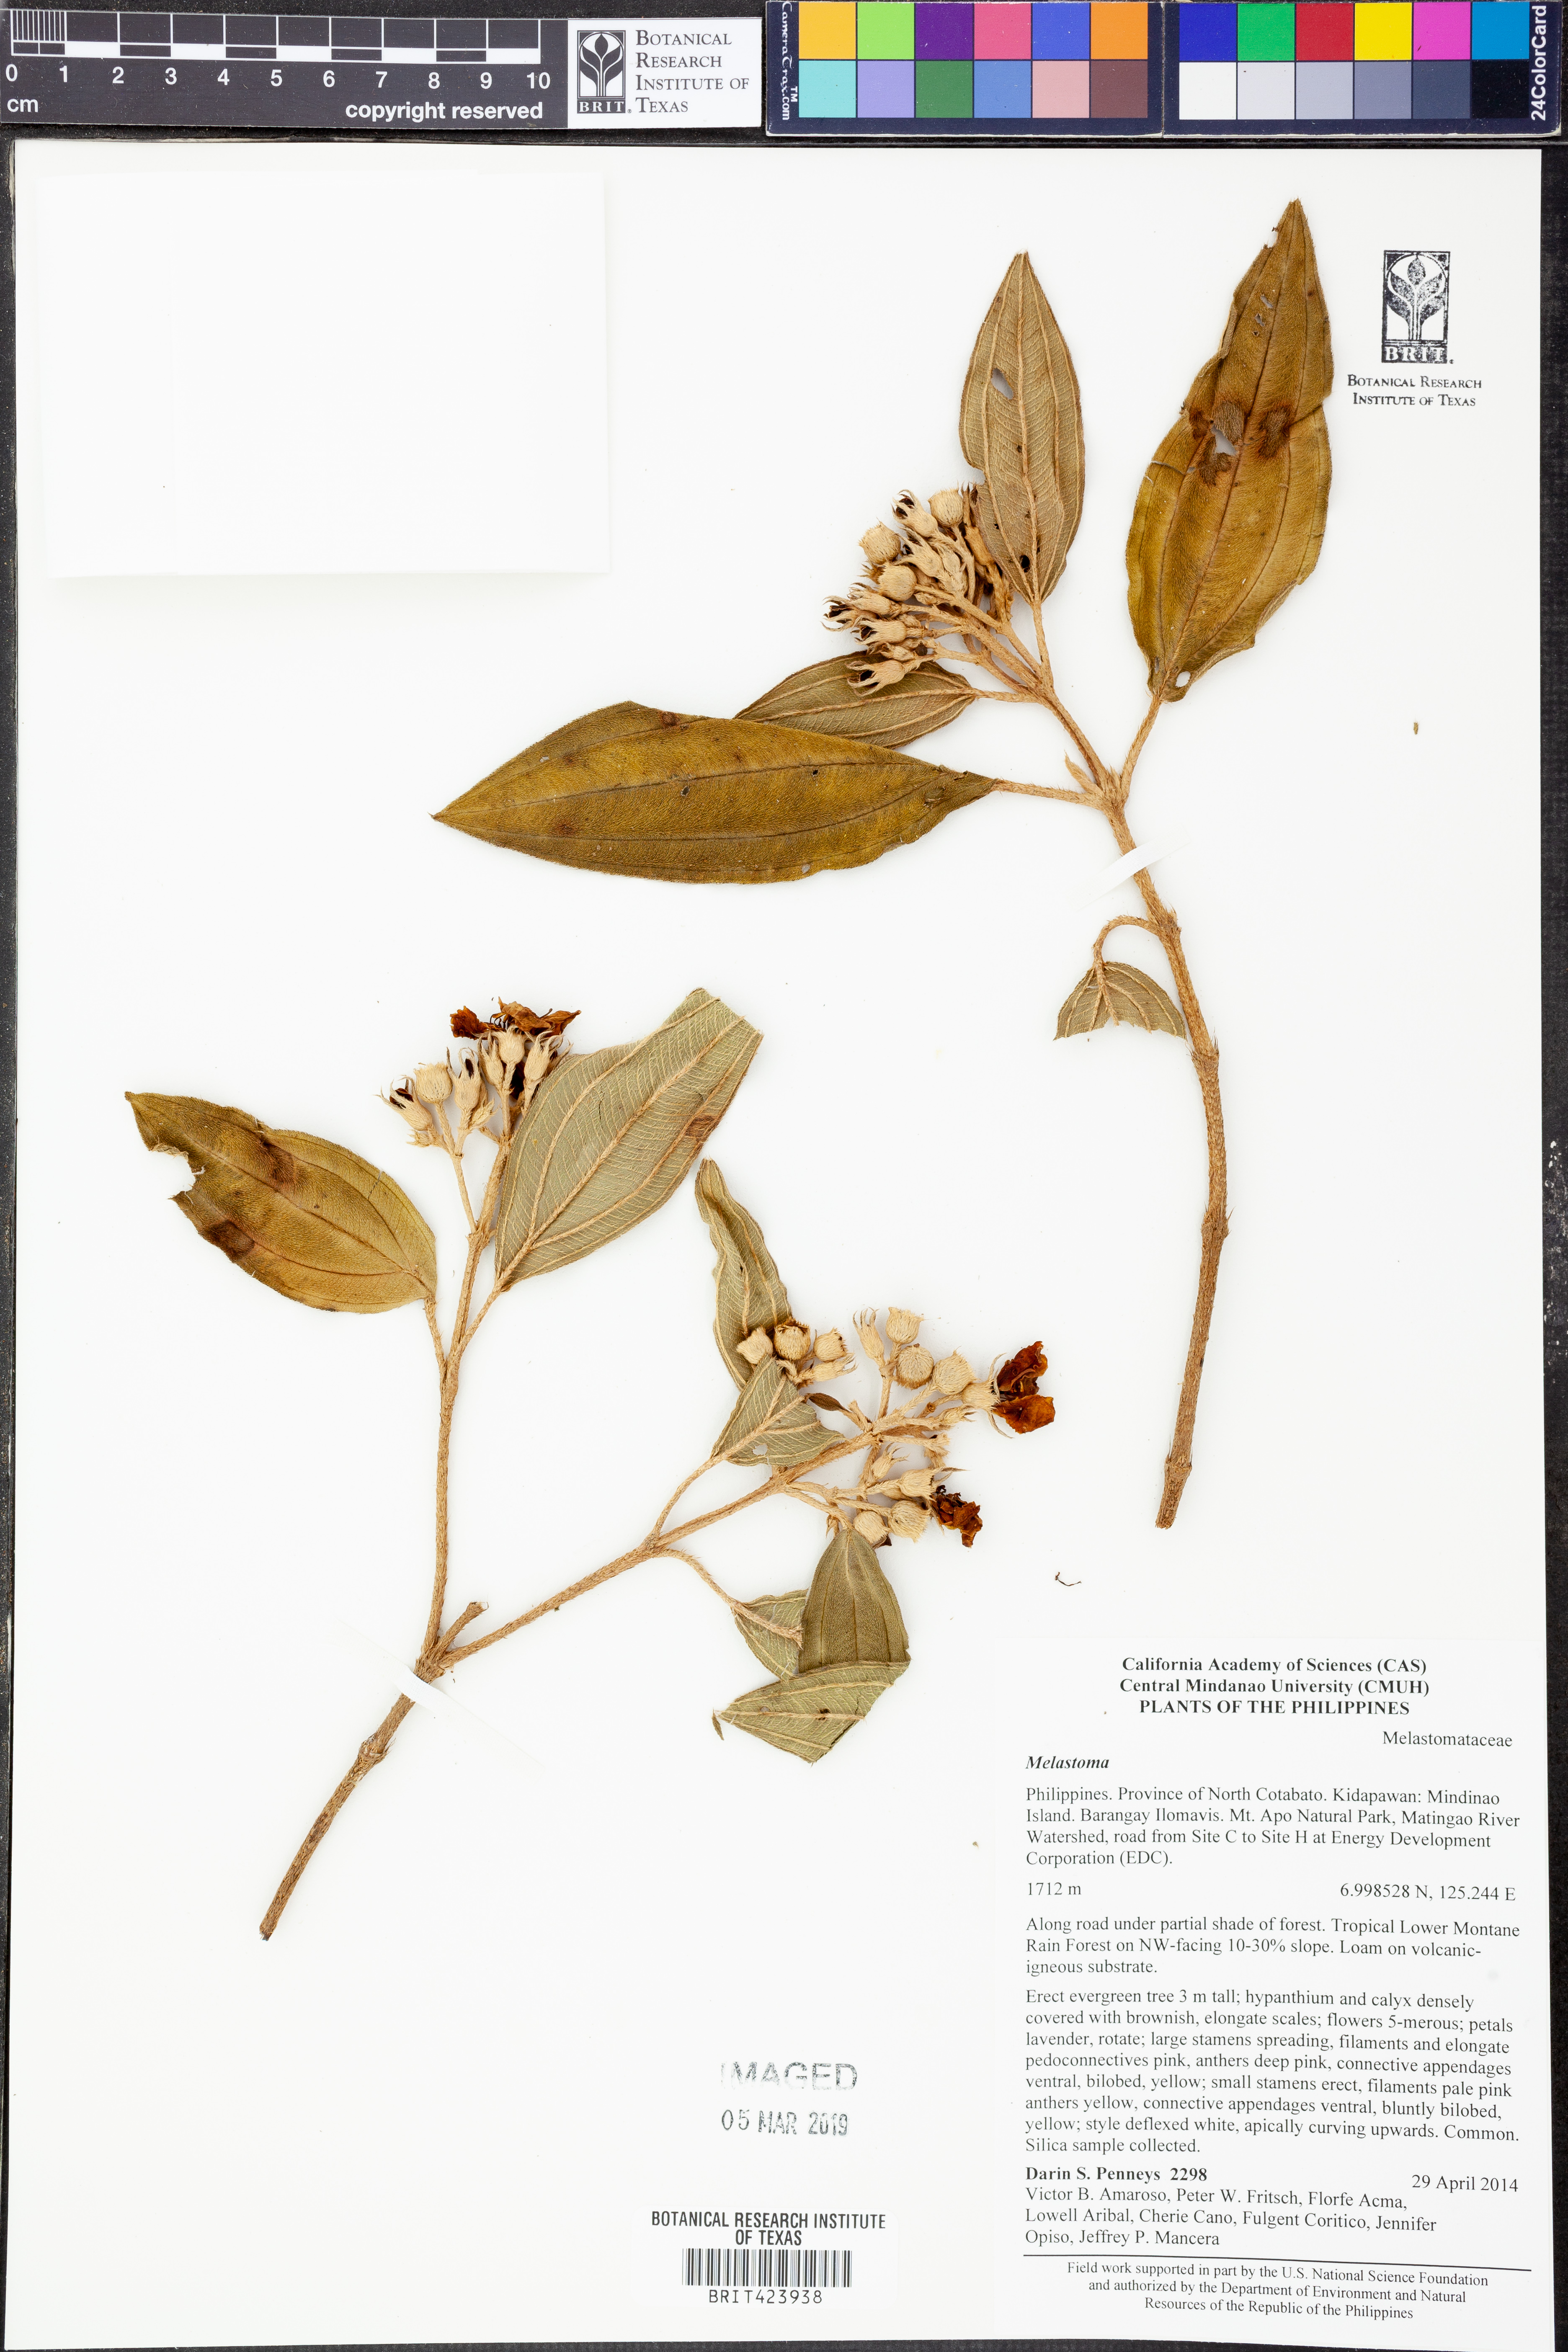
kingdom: Plantae
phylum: Tracheophyta
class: Magnoliopsida
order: Myrtales
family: Melastomataceae
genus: Melastoma
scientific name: Melastoma
